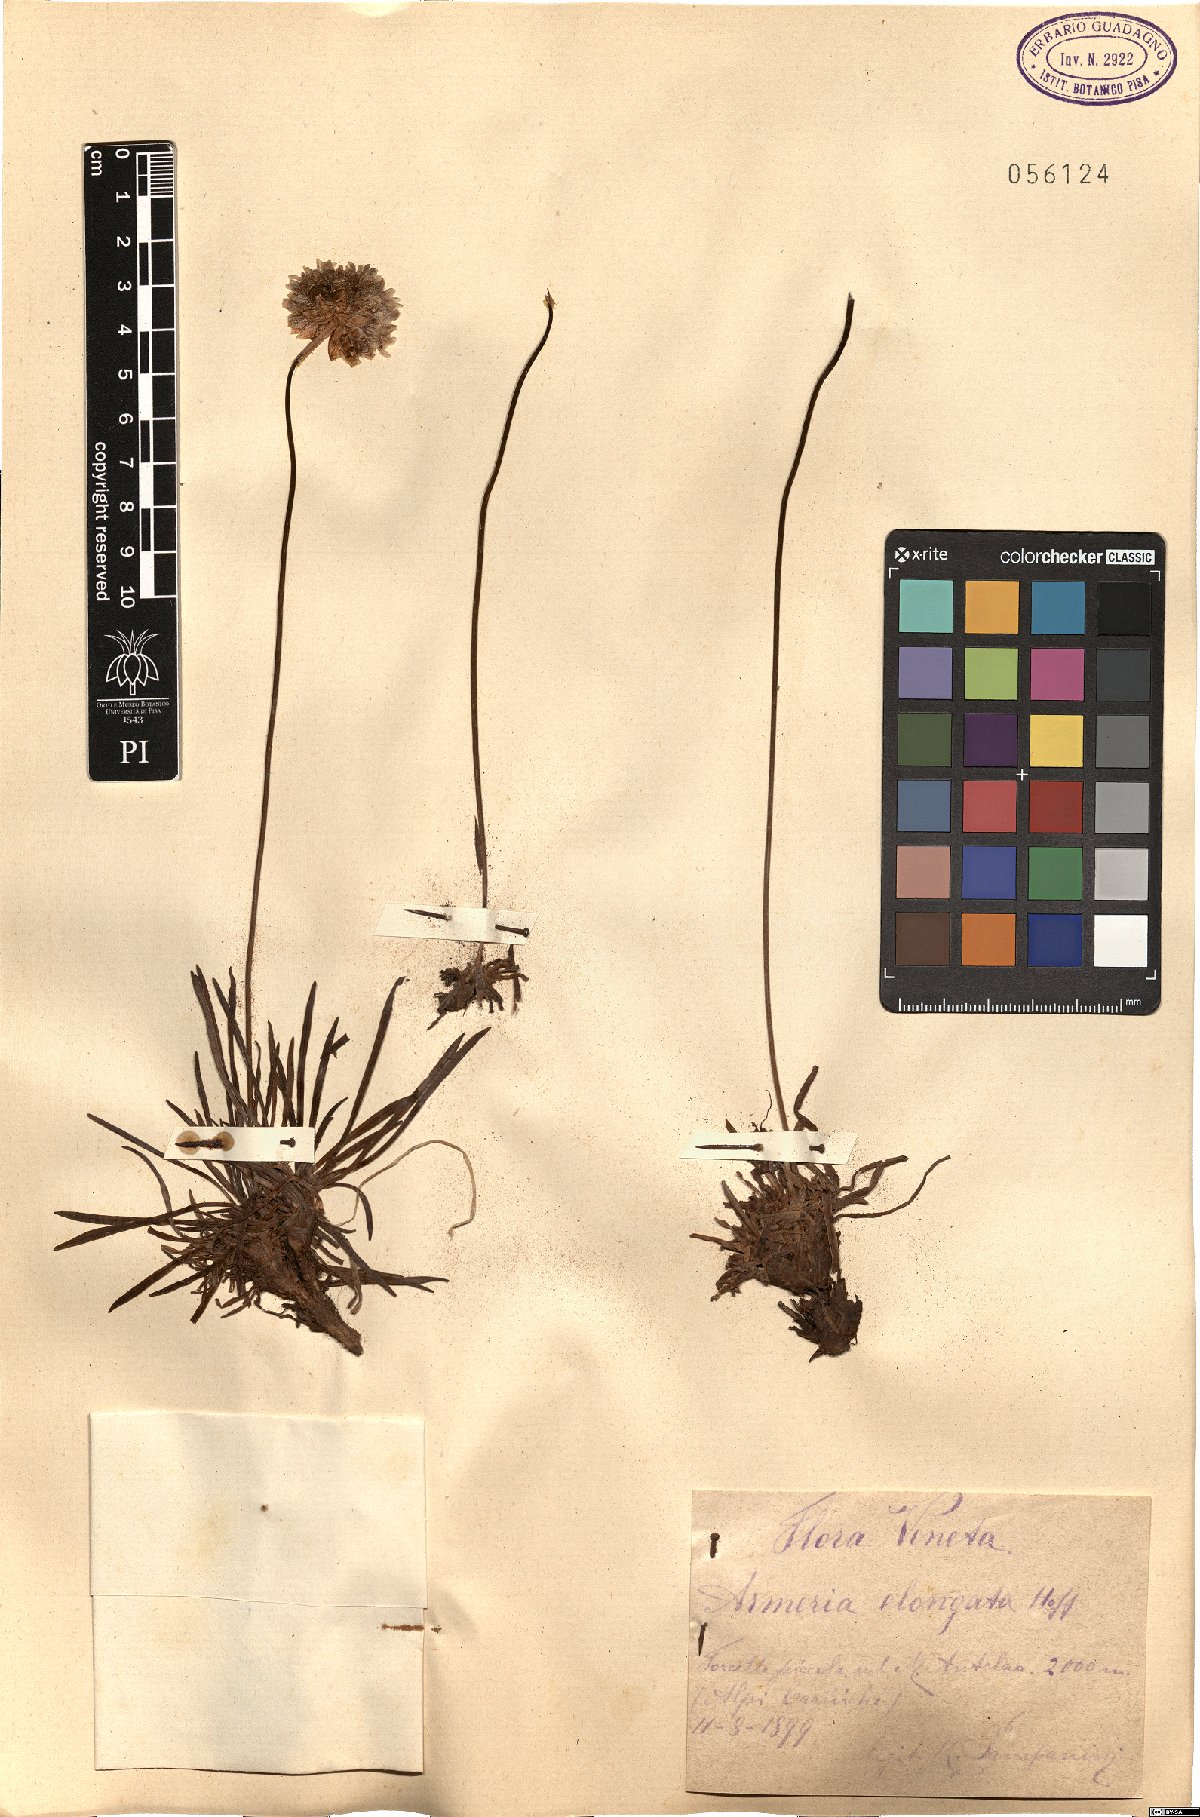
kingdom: Plantae
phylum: Tracheophyta
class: Magnoliopsida
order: Caryophyllales
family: Plumbaginaceae
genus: Armeria
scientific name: Armeria maritima
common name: Thrift
